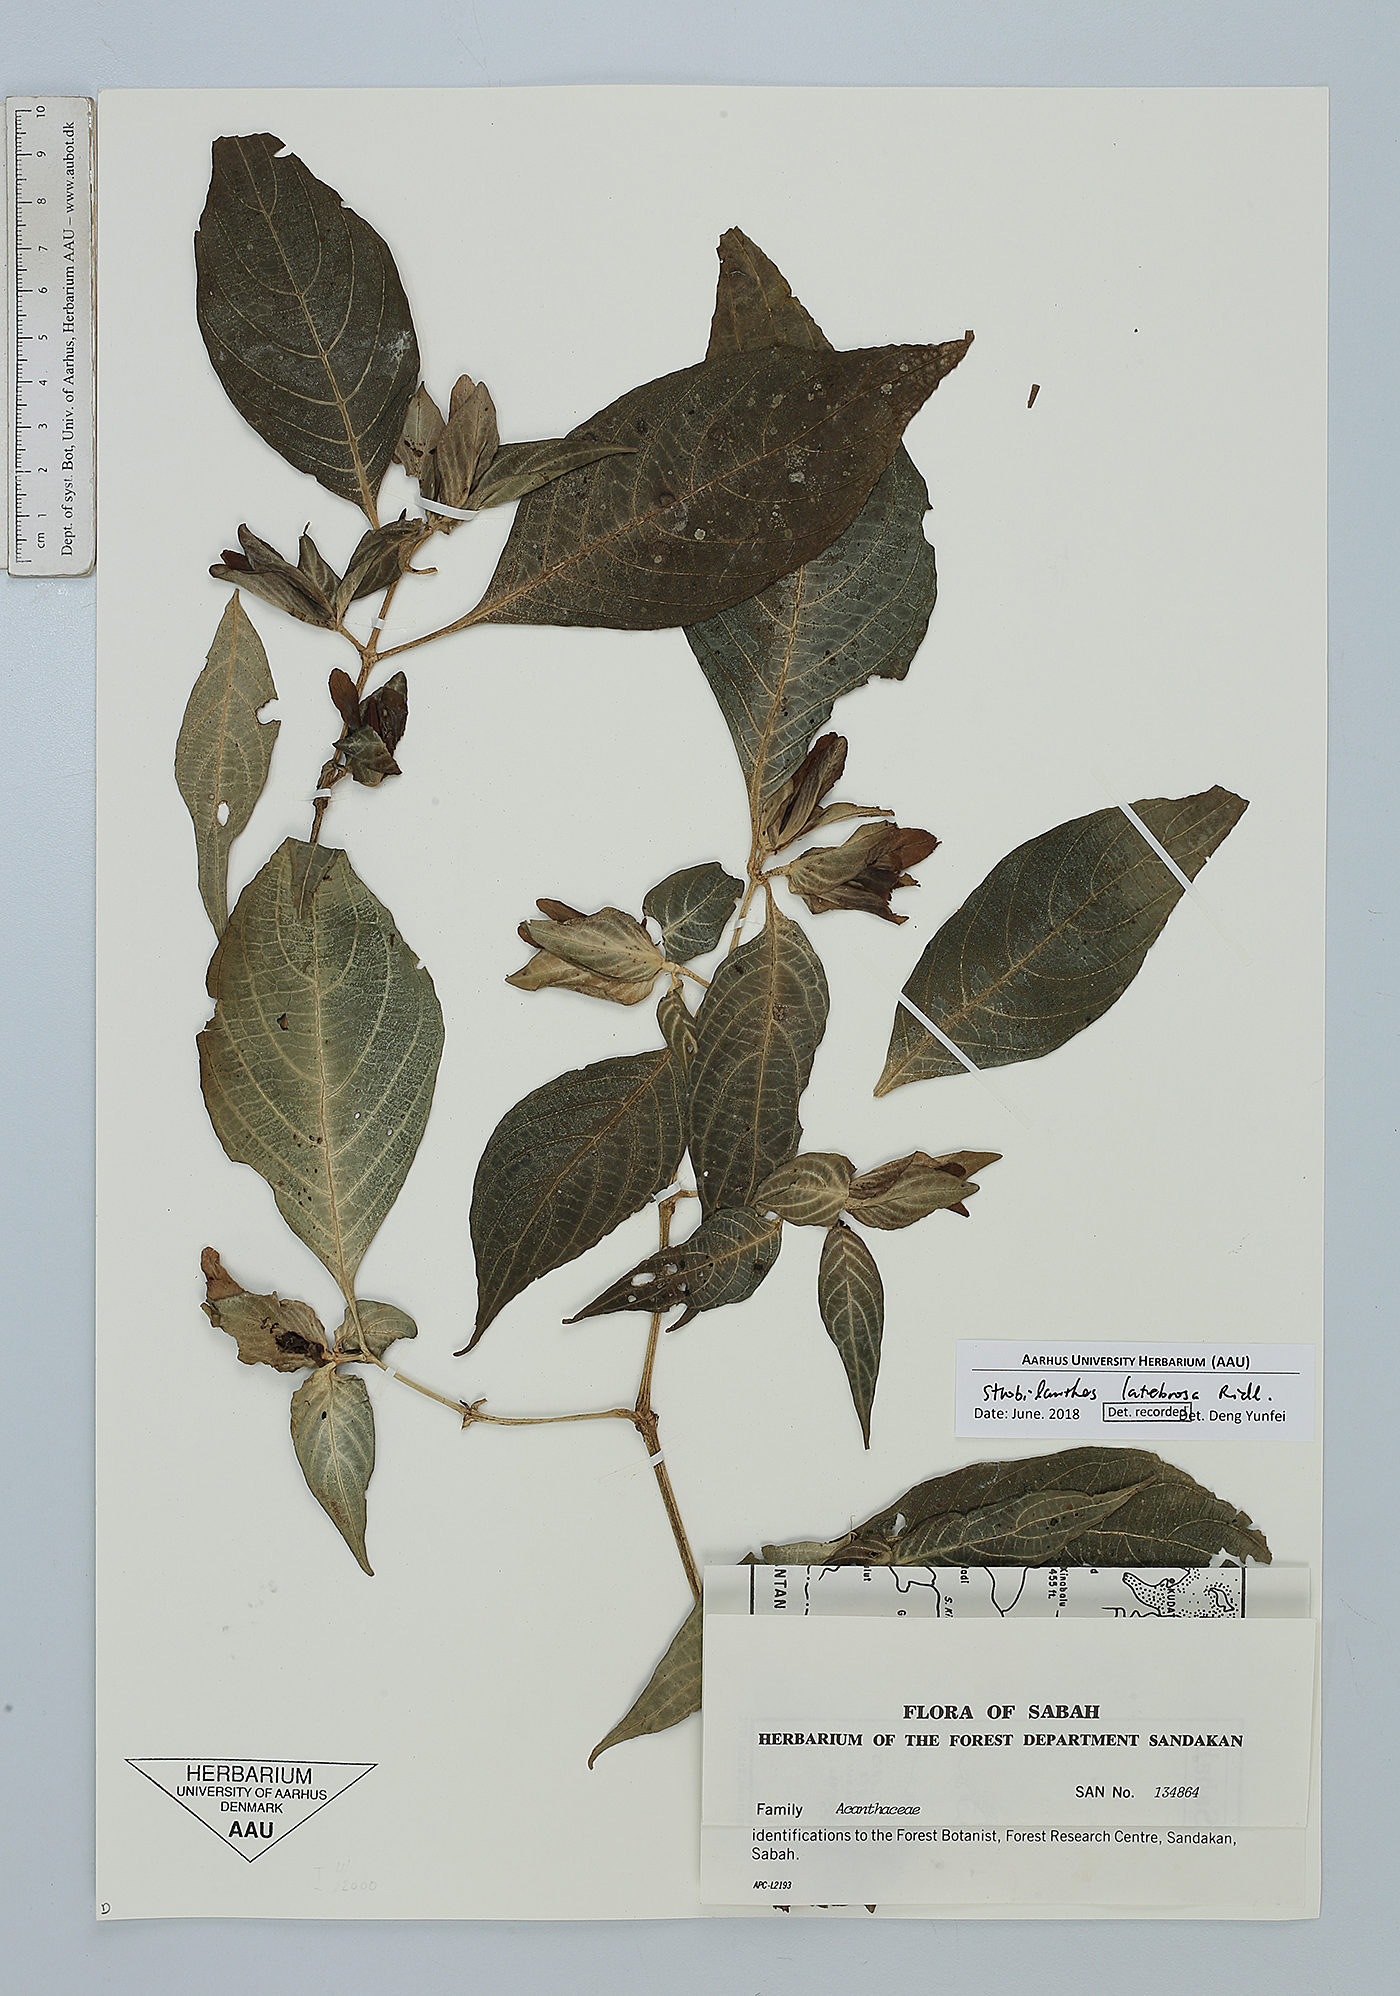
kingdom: Plantae
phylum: Tracheophyta
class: Magnoliopsida
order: Lamiales
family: Acanthaceae
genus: Strobilanthes
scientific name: Strobilanthes latebrosa
